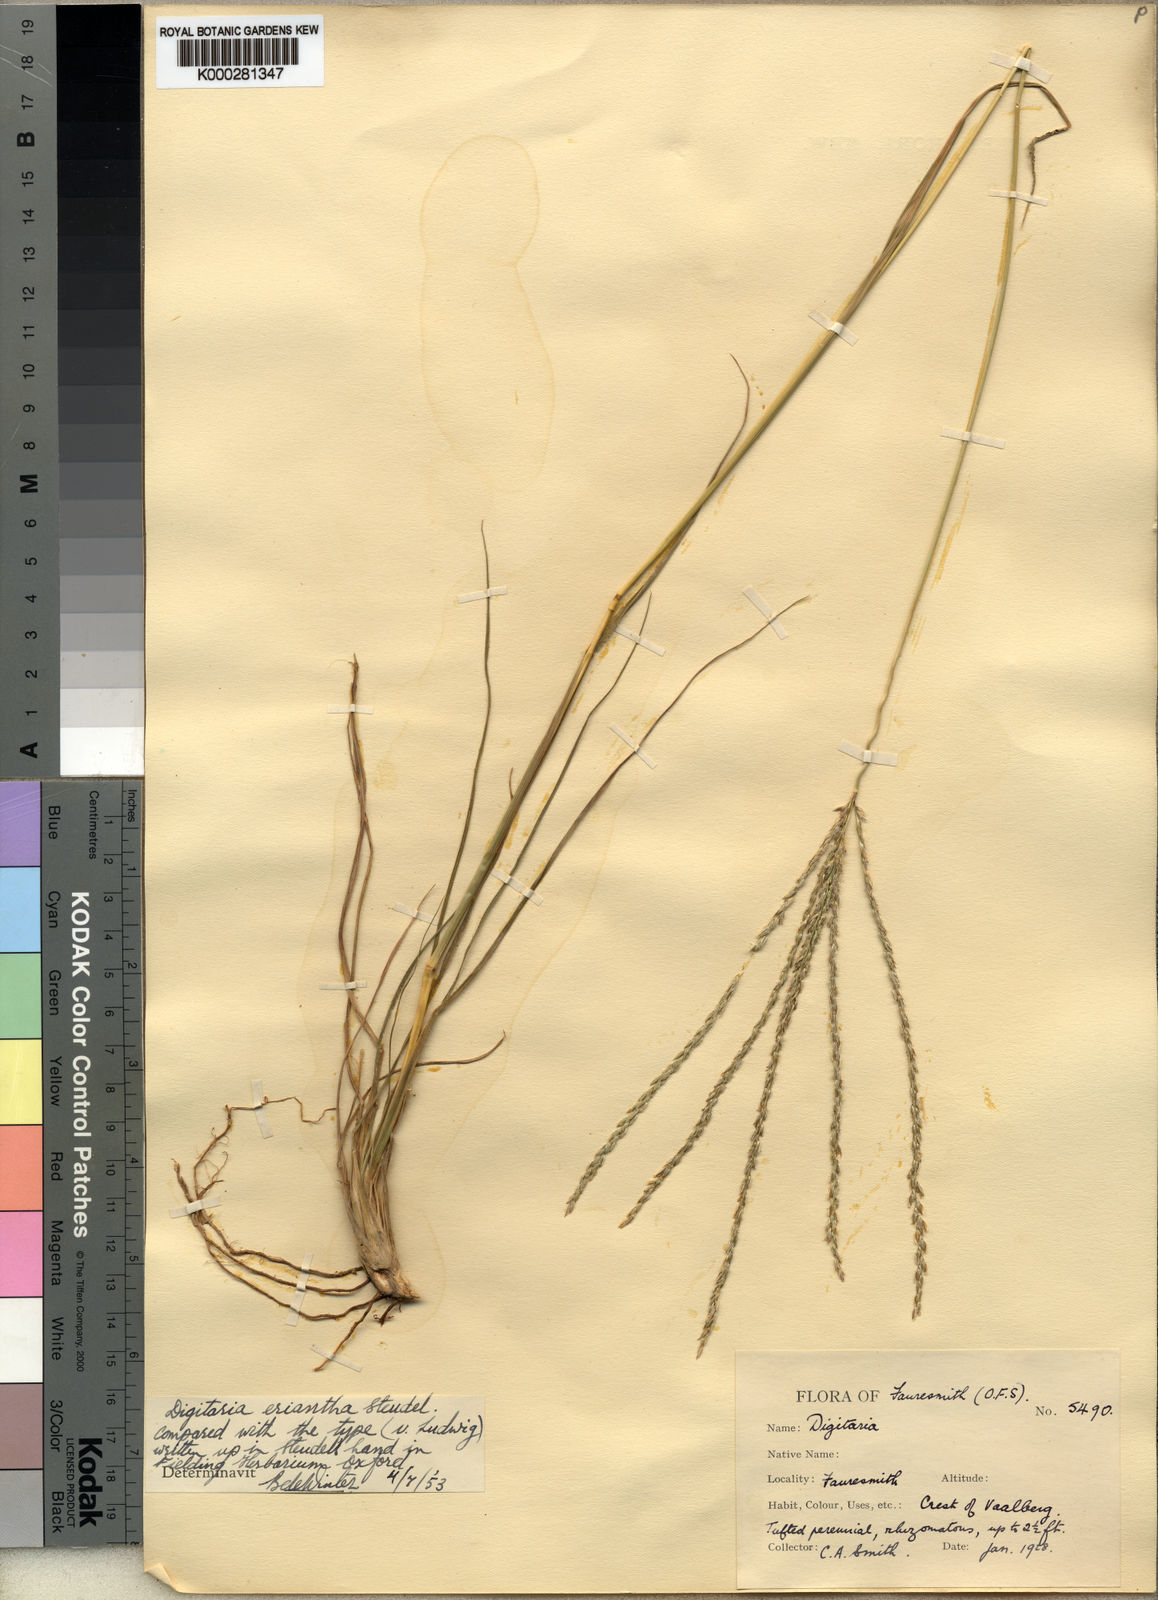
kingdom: Plantae
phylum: Tracheophyta
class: Liliopsida
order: Poales
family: Poaceae
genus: Digitaria
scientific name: Digitaria eriantha
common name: Digitgrass
